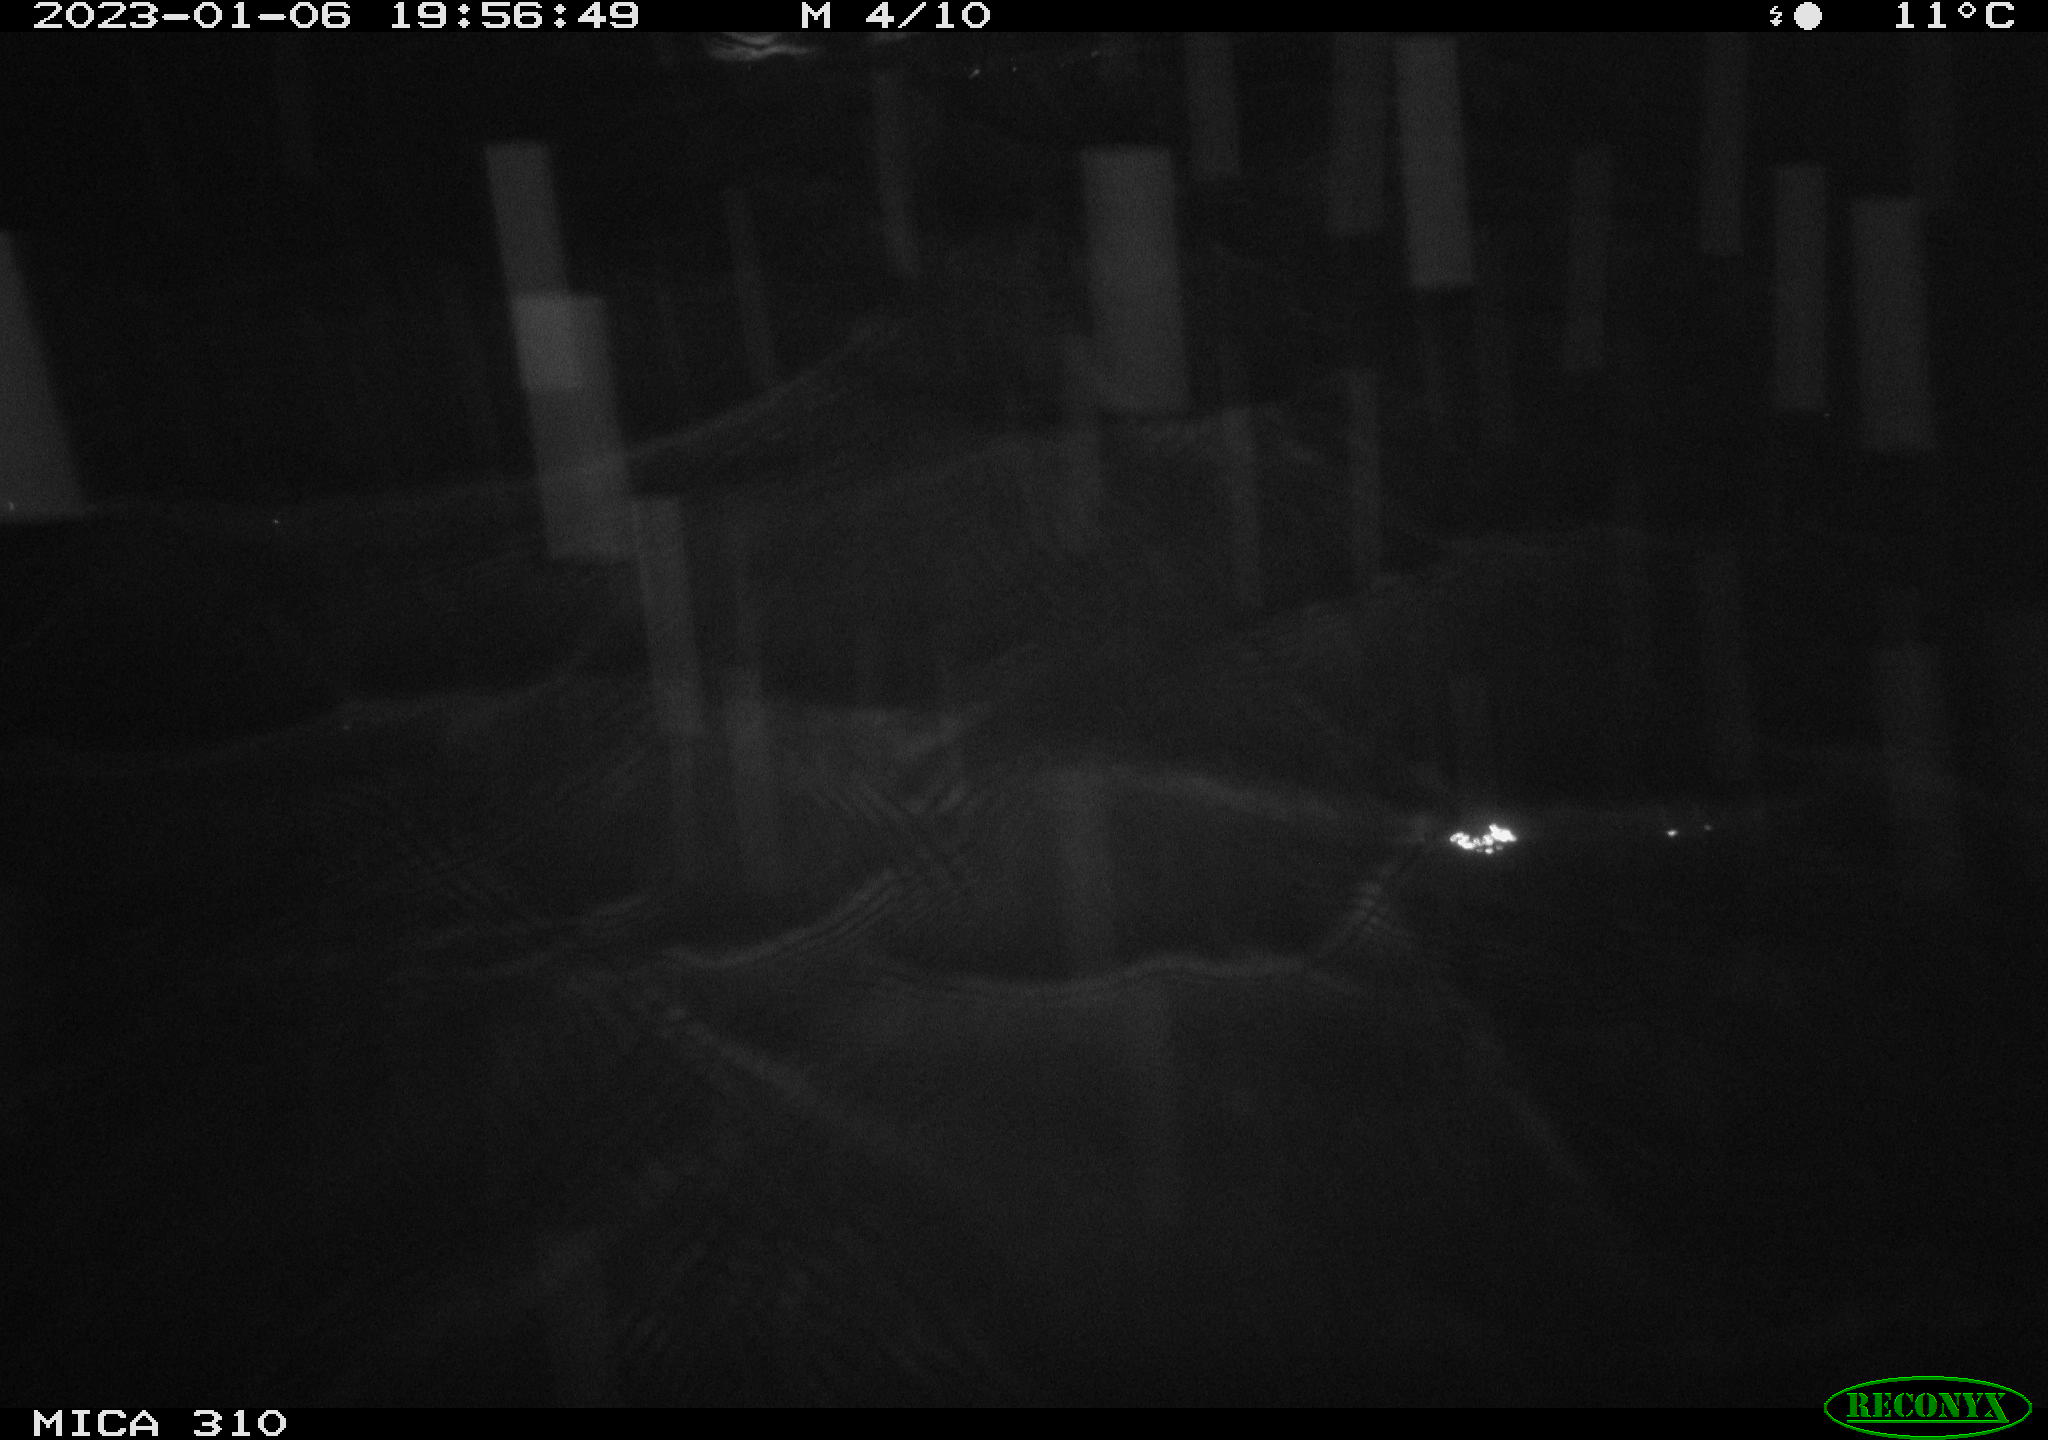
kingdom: Animalia
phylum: Chordata
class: Mammalia
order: Rodentia
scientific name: Rodentia
